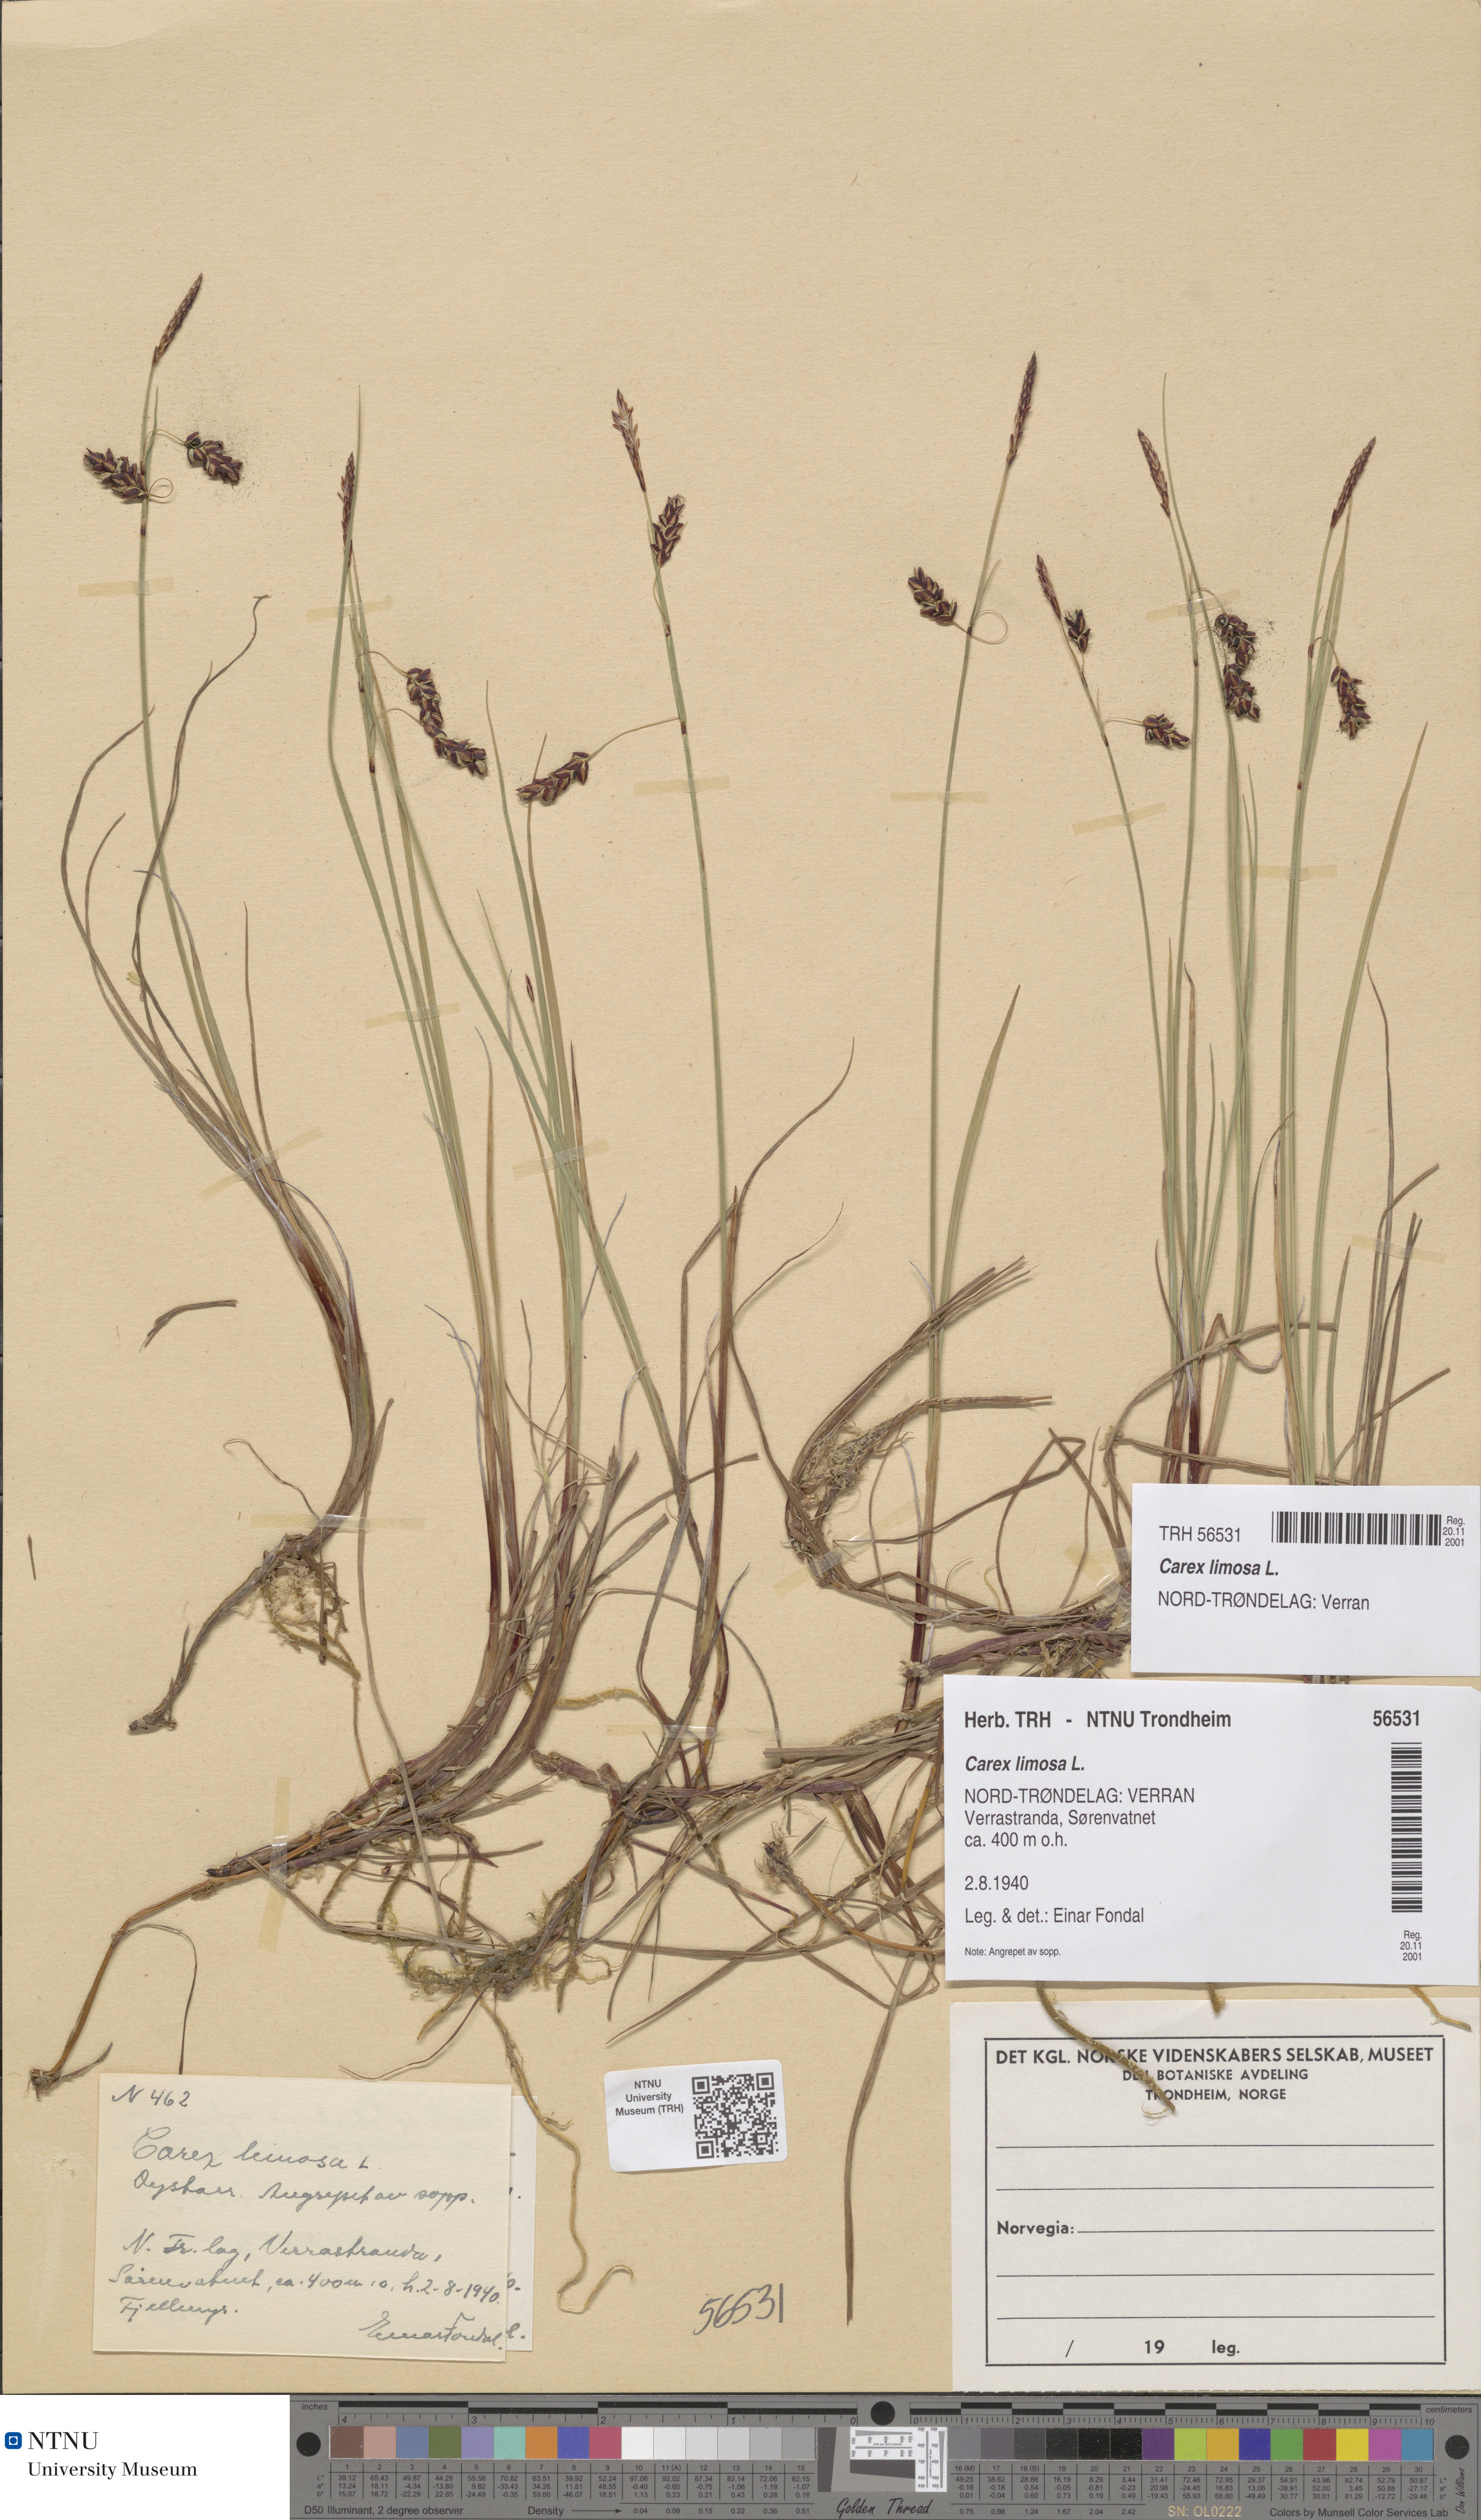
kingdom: Plantae
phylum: Tracheophyta
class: Liliopsida
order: Poales
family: Cyperaceae
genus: Carex
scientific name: Carex limosa
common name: Bog sedge
